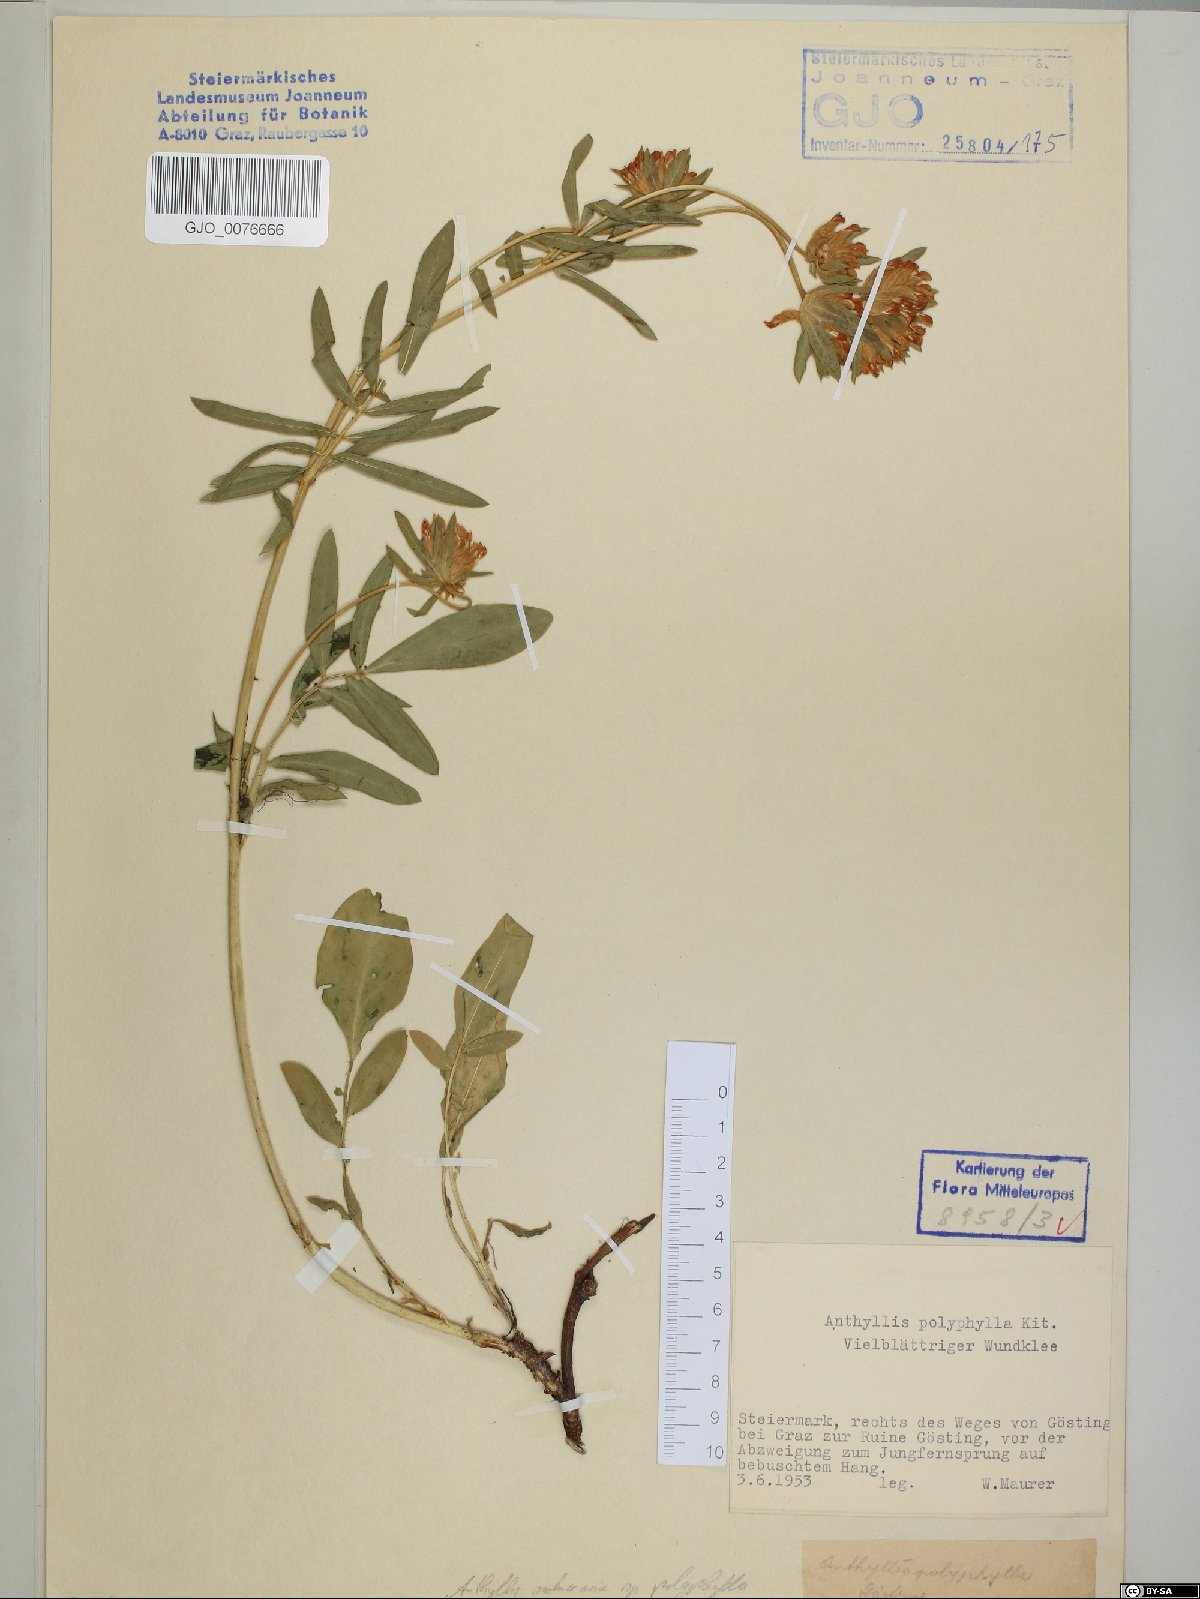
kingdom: Plantae
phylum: Tracheophyta
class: Magnoliopsida
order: Fabales
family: Fabaceae
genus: Anthyllis
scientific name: Anthyllis vulneraria
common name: Kidney vetch
